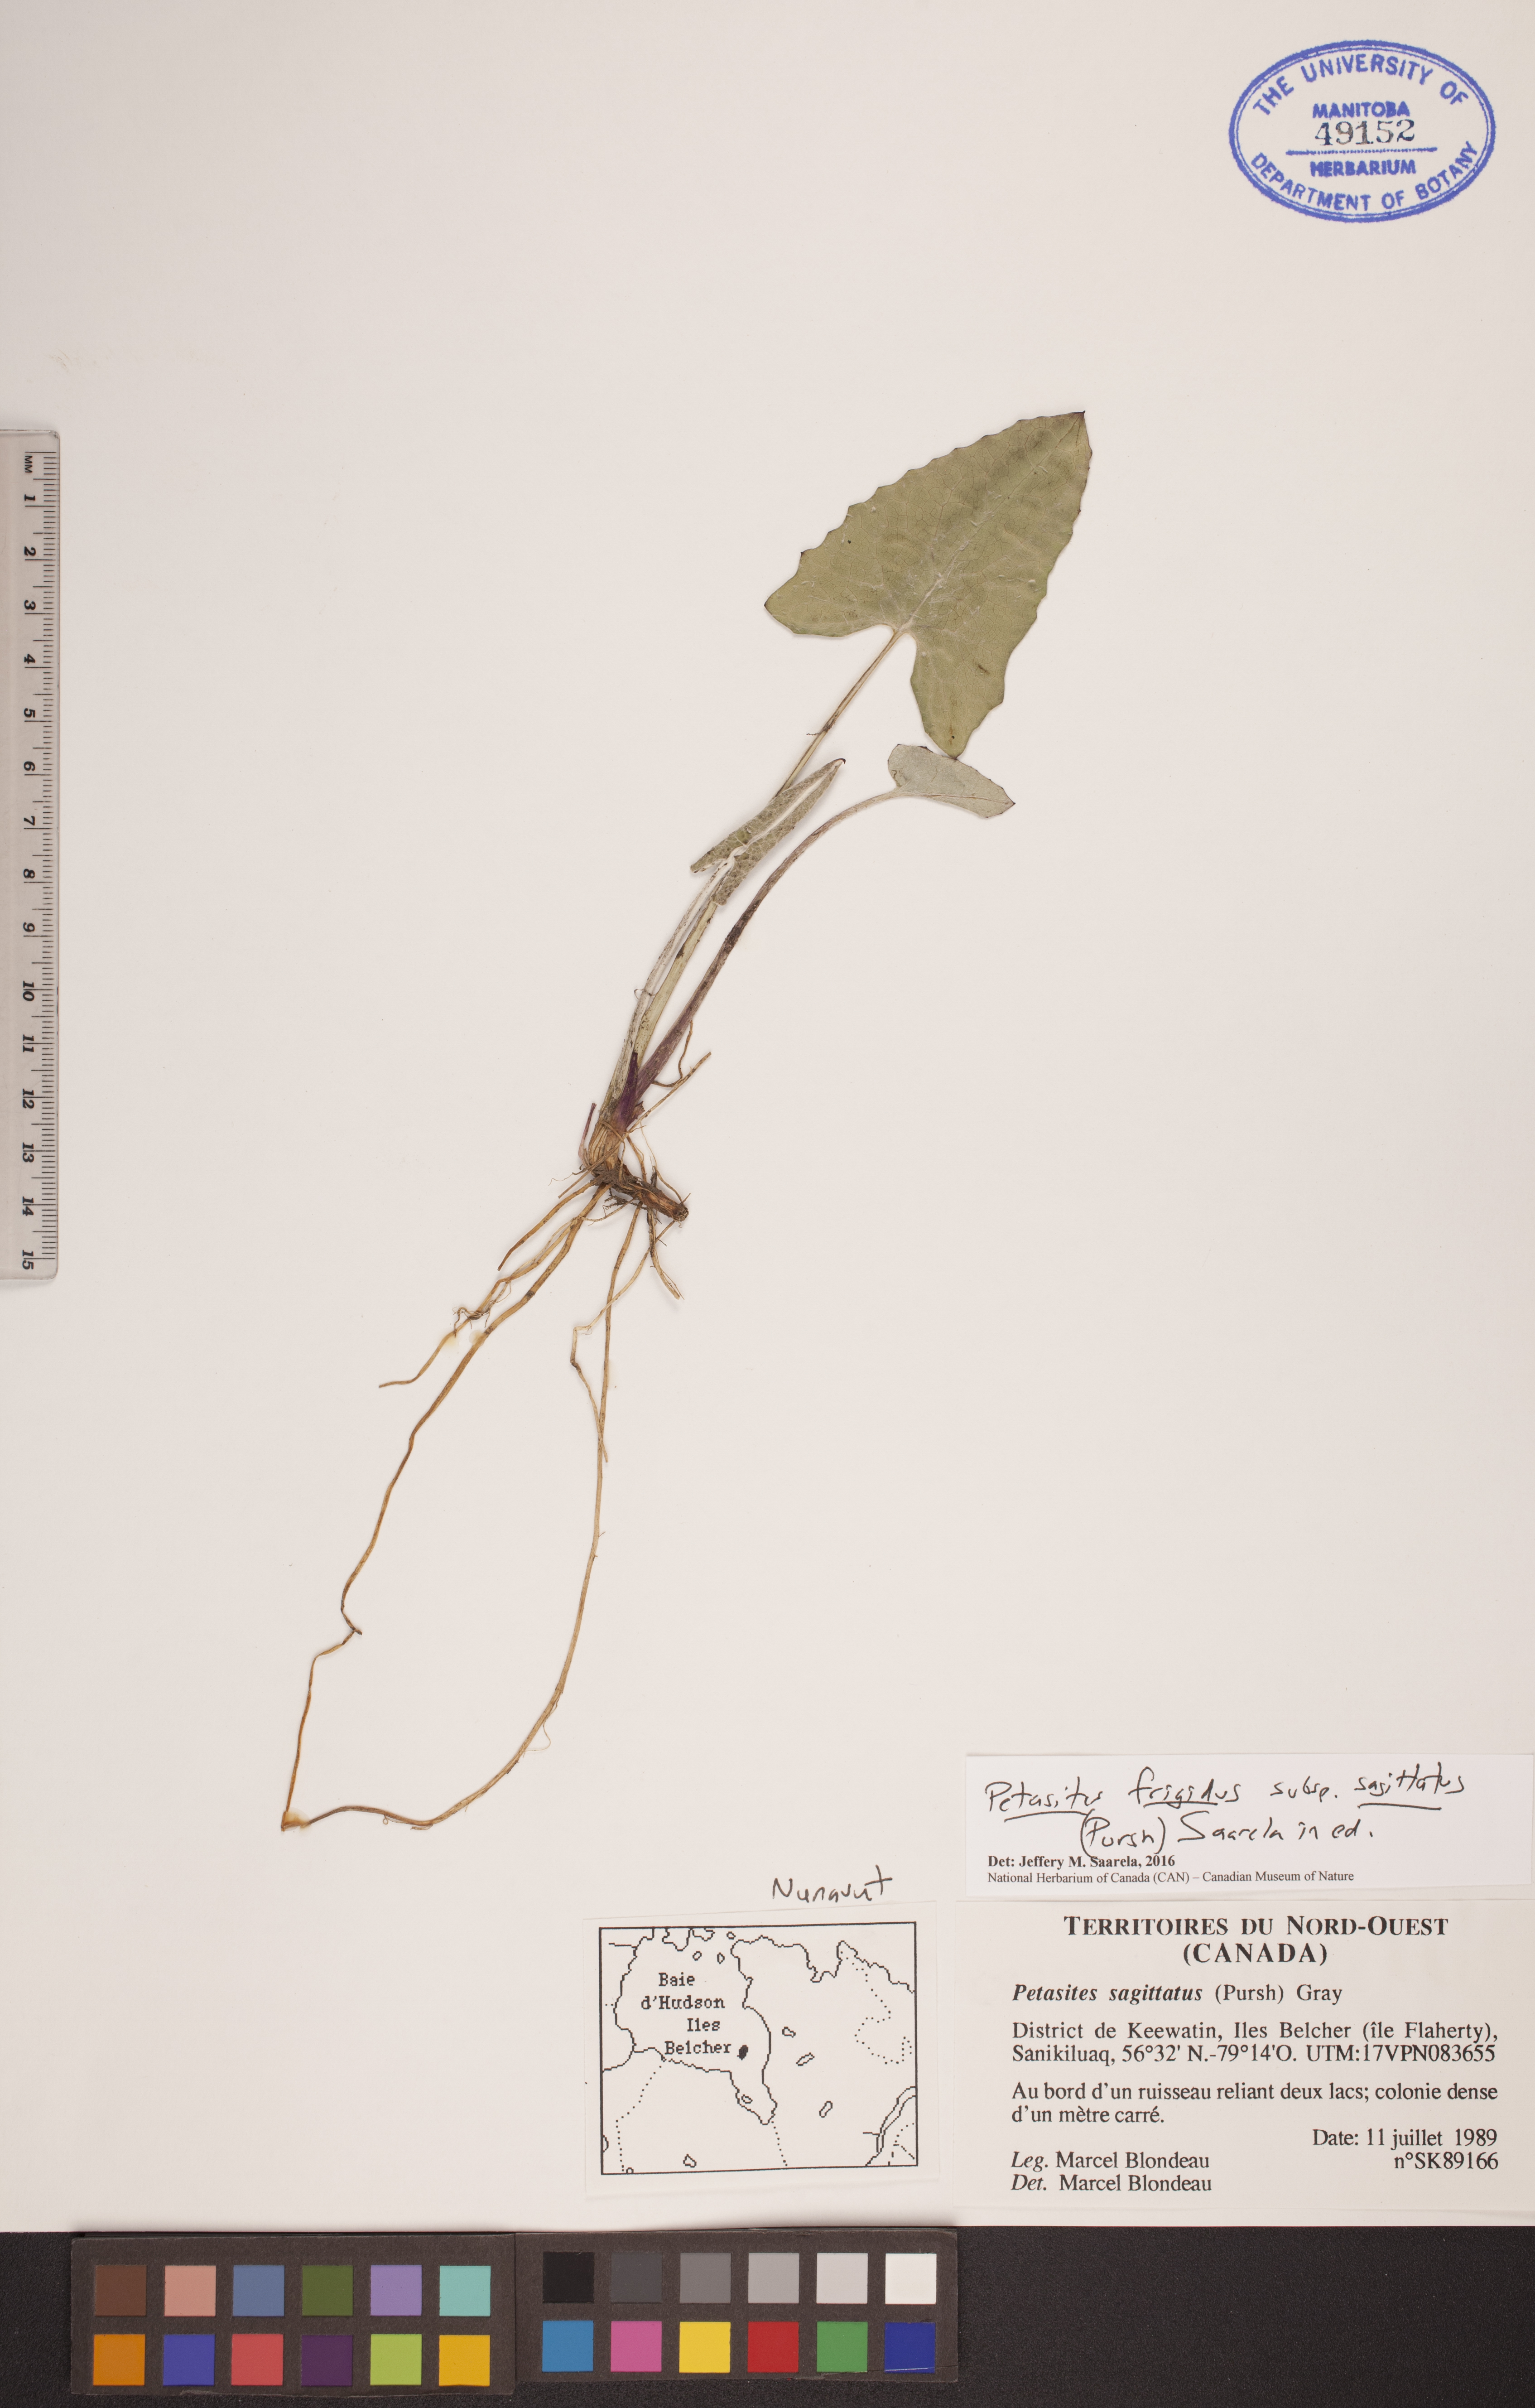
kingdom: Plantae
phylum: Tracheophyta
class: Magnoliopsida
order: Asterales
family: Asteraceae
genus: Petasites
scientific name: Petasites frigidus
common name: Arctic butterbur
